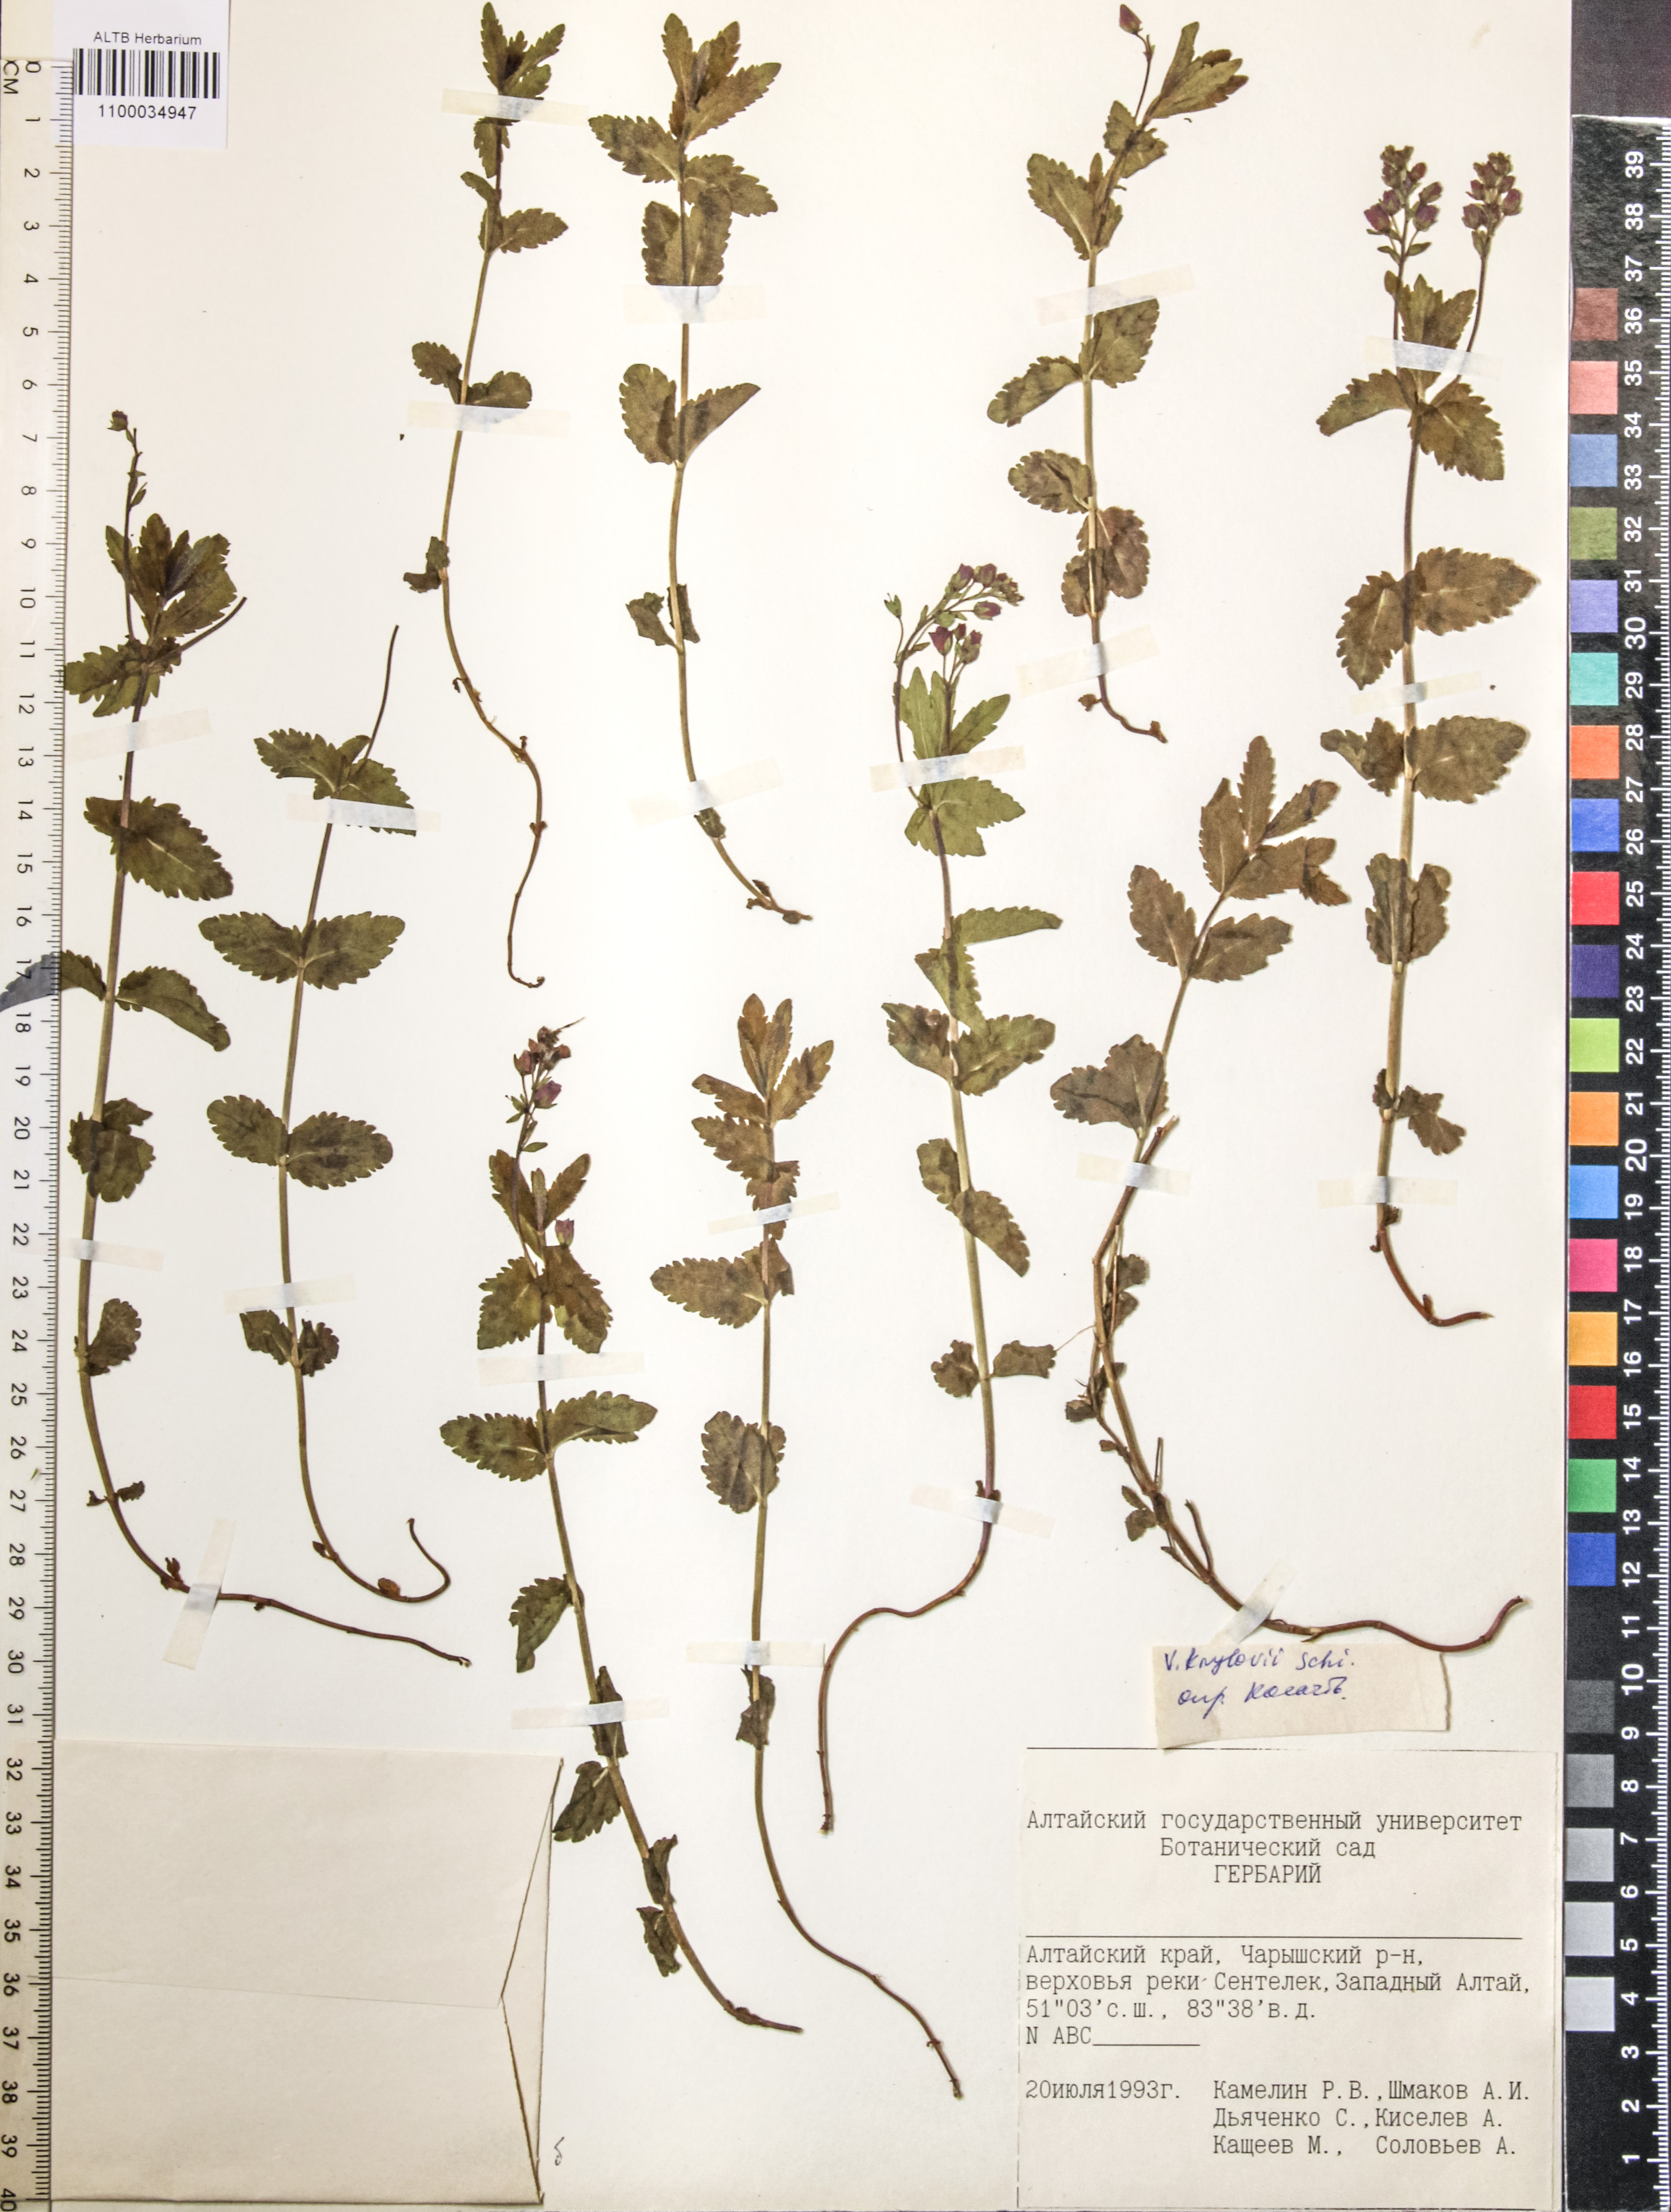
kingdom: Plantae
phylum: Tracheophyta
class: Magnoliopsida
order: Lamiales
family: Plantaginaceae
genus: Veronica
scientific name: Veronica krylovii
